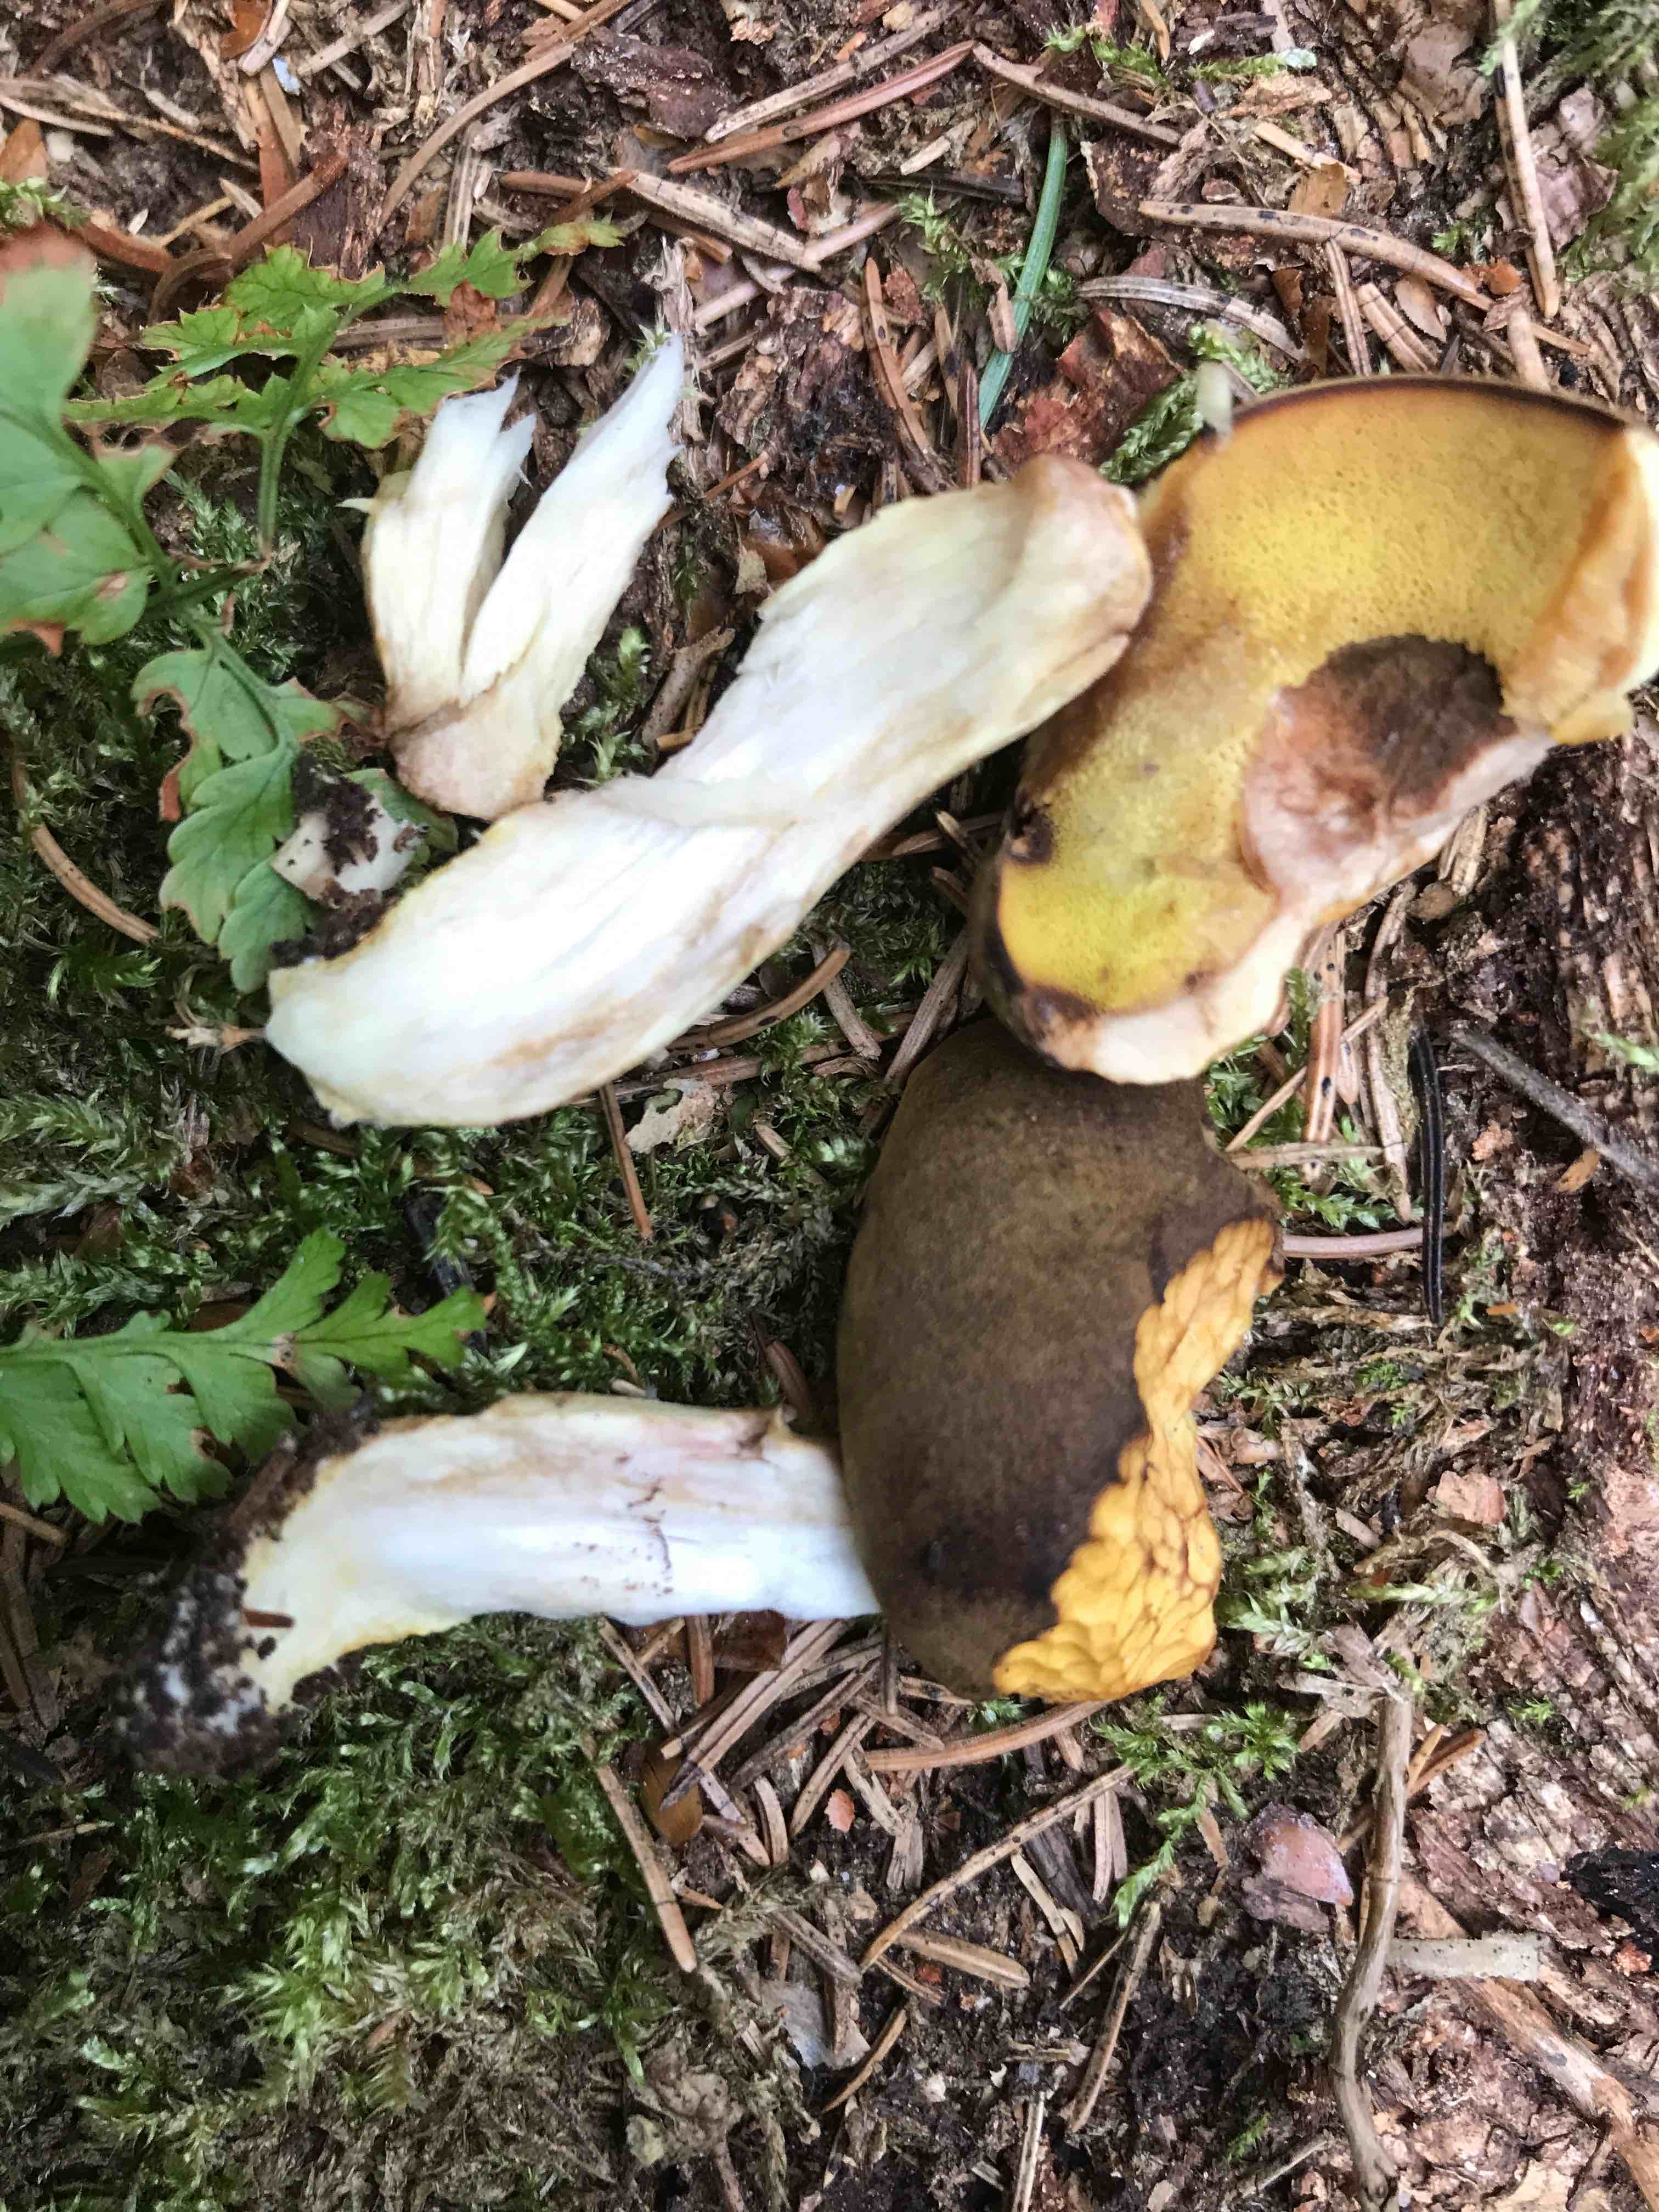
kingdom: Fungi
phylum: Basidiomycota
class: Agaricomycetes
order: Boletales
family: Boletaceae
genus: Boletus
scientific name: Boletus edulis
